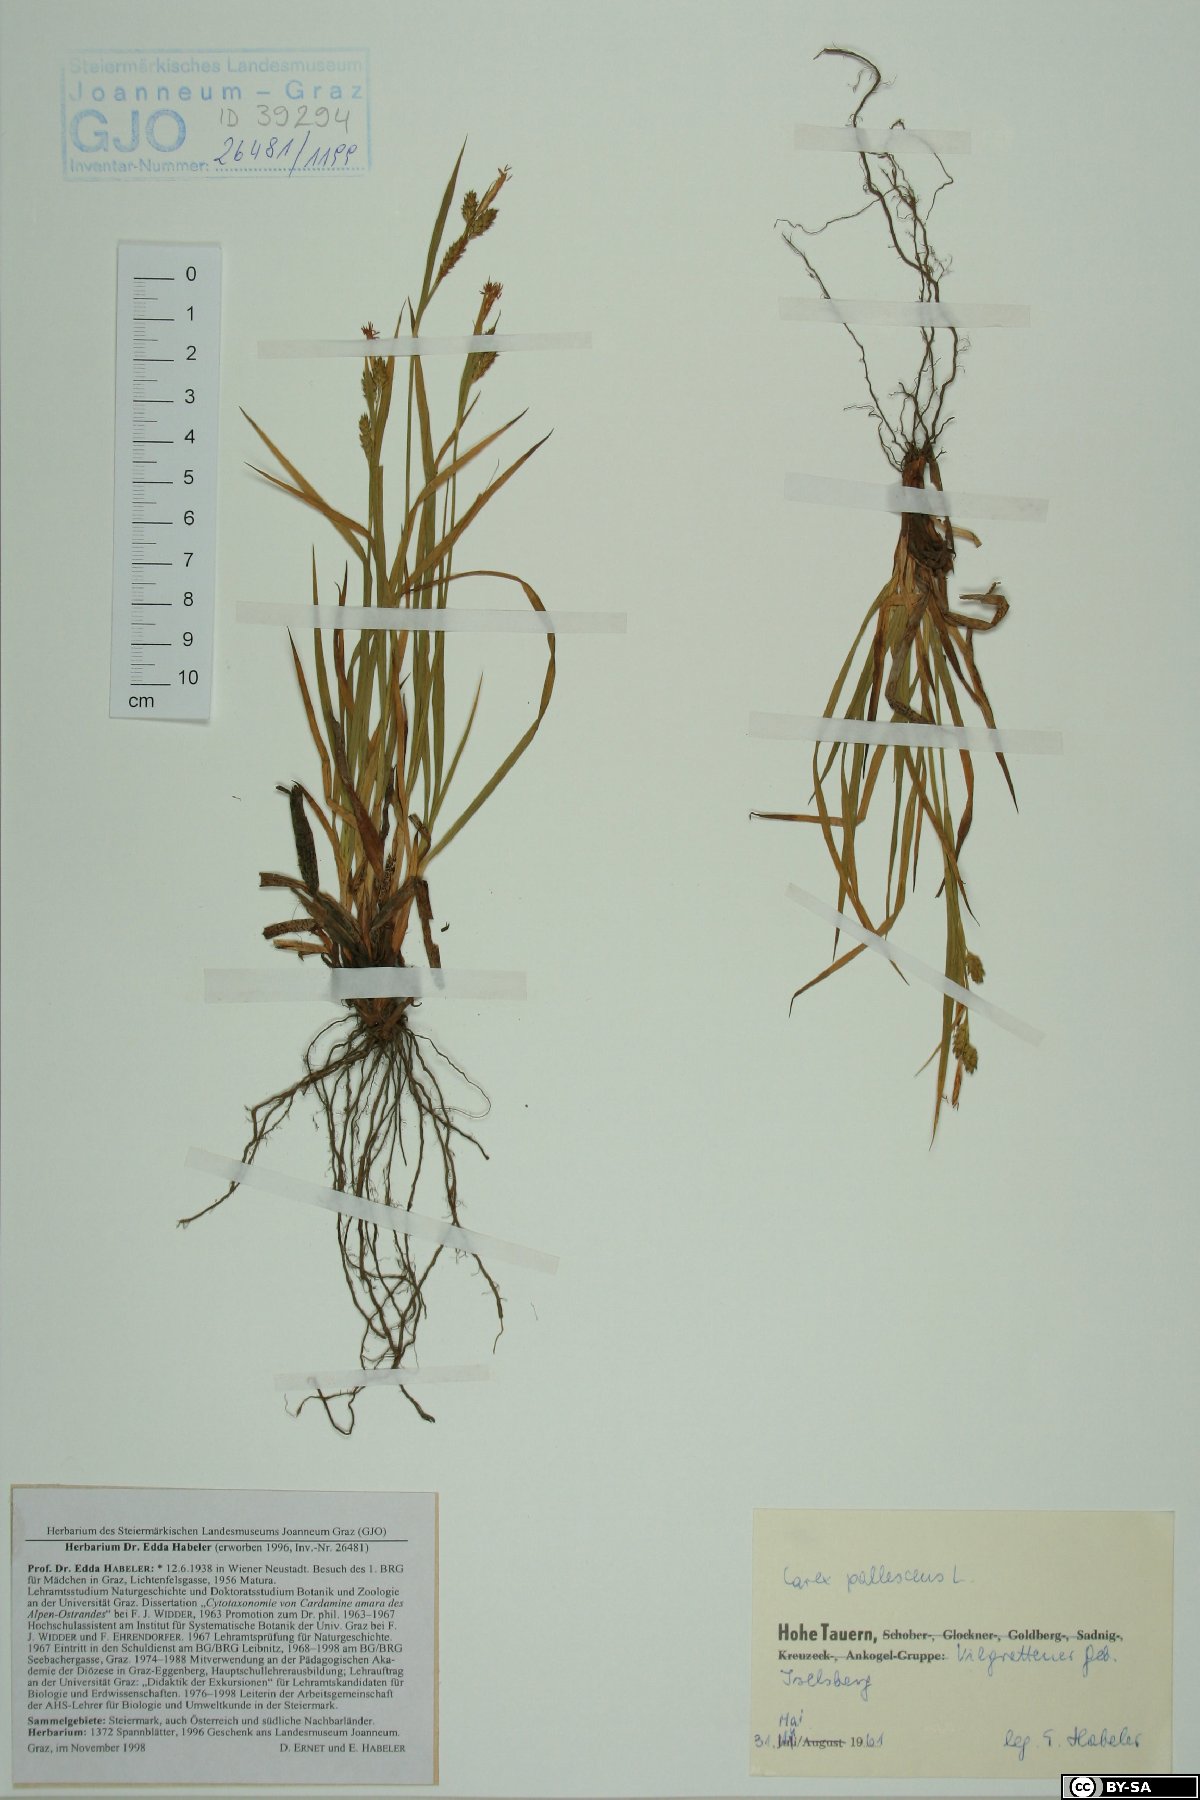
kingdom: Plantae
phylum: Tracheophyta
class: Liliopsida
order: Poales
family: Cyperaceae
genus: Carex
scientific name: Carex pallescens
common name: Pale sedge
